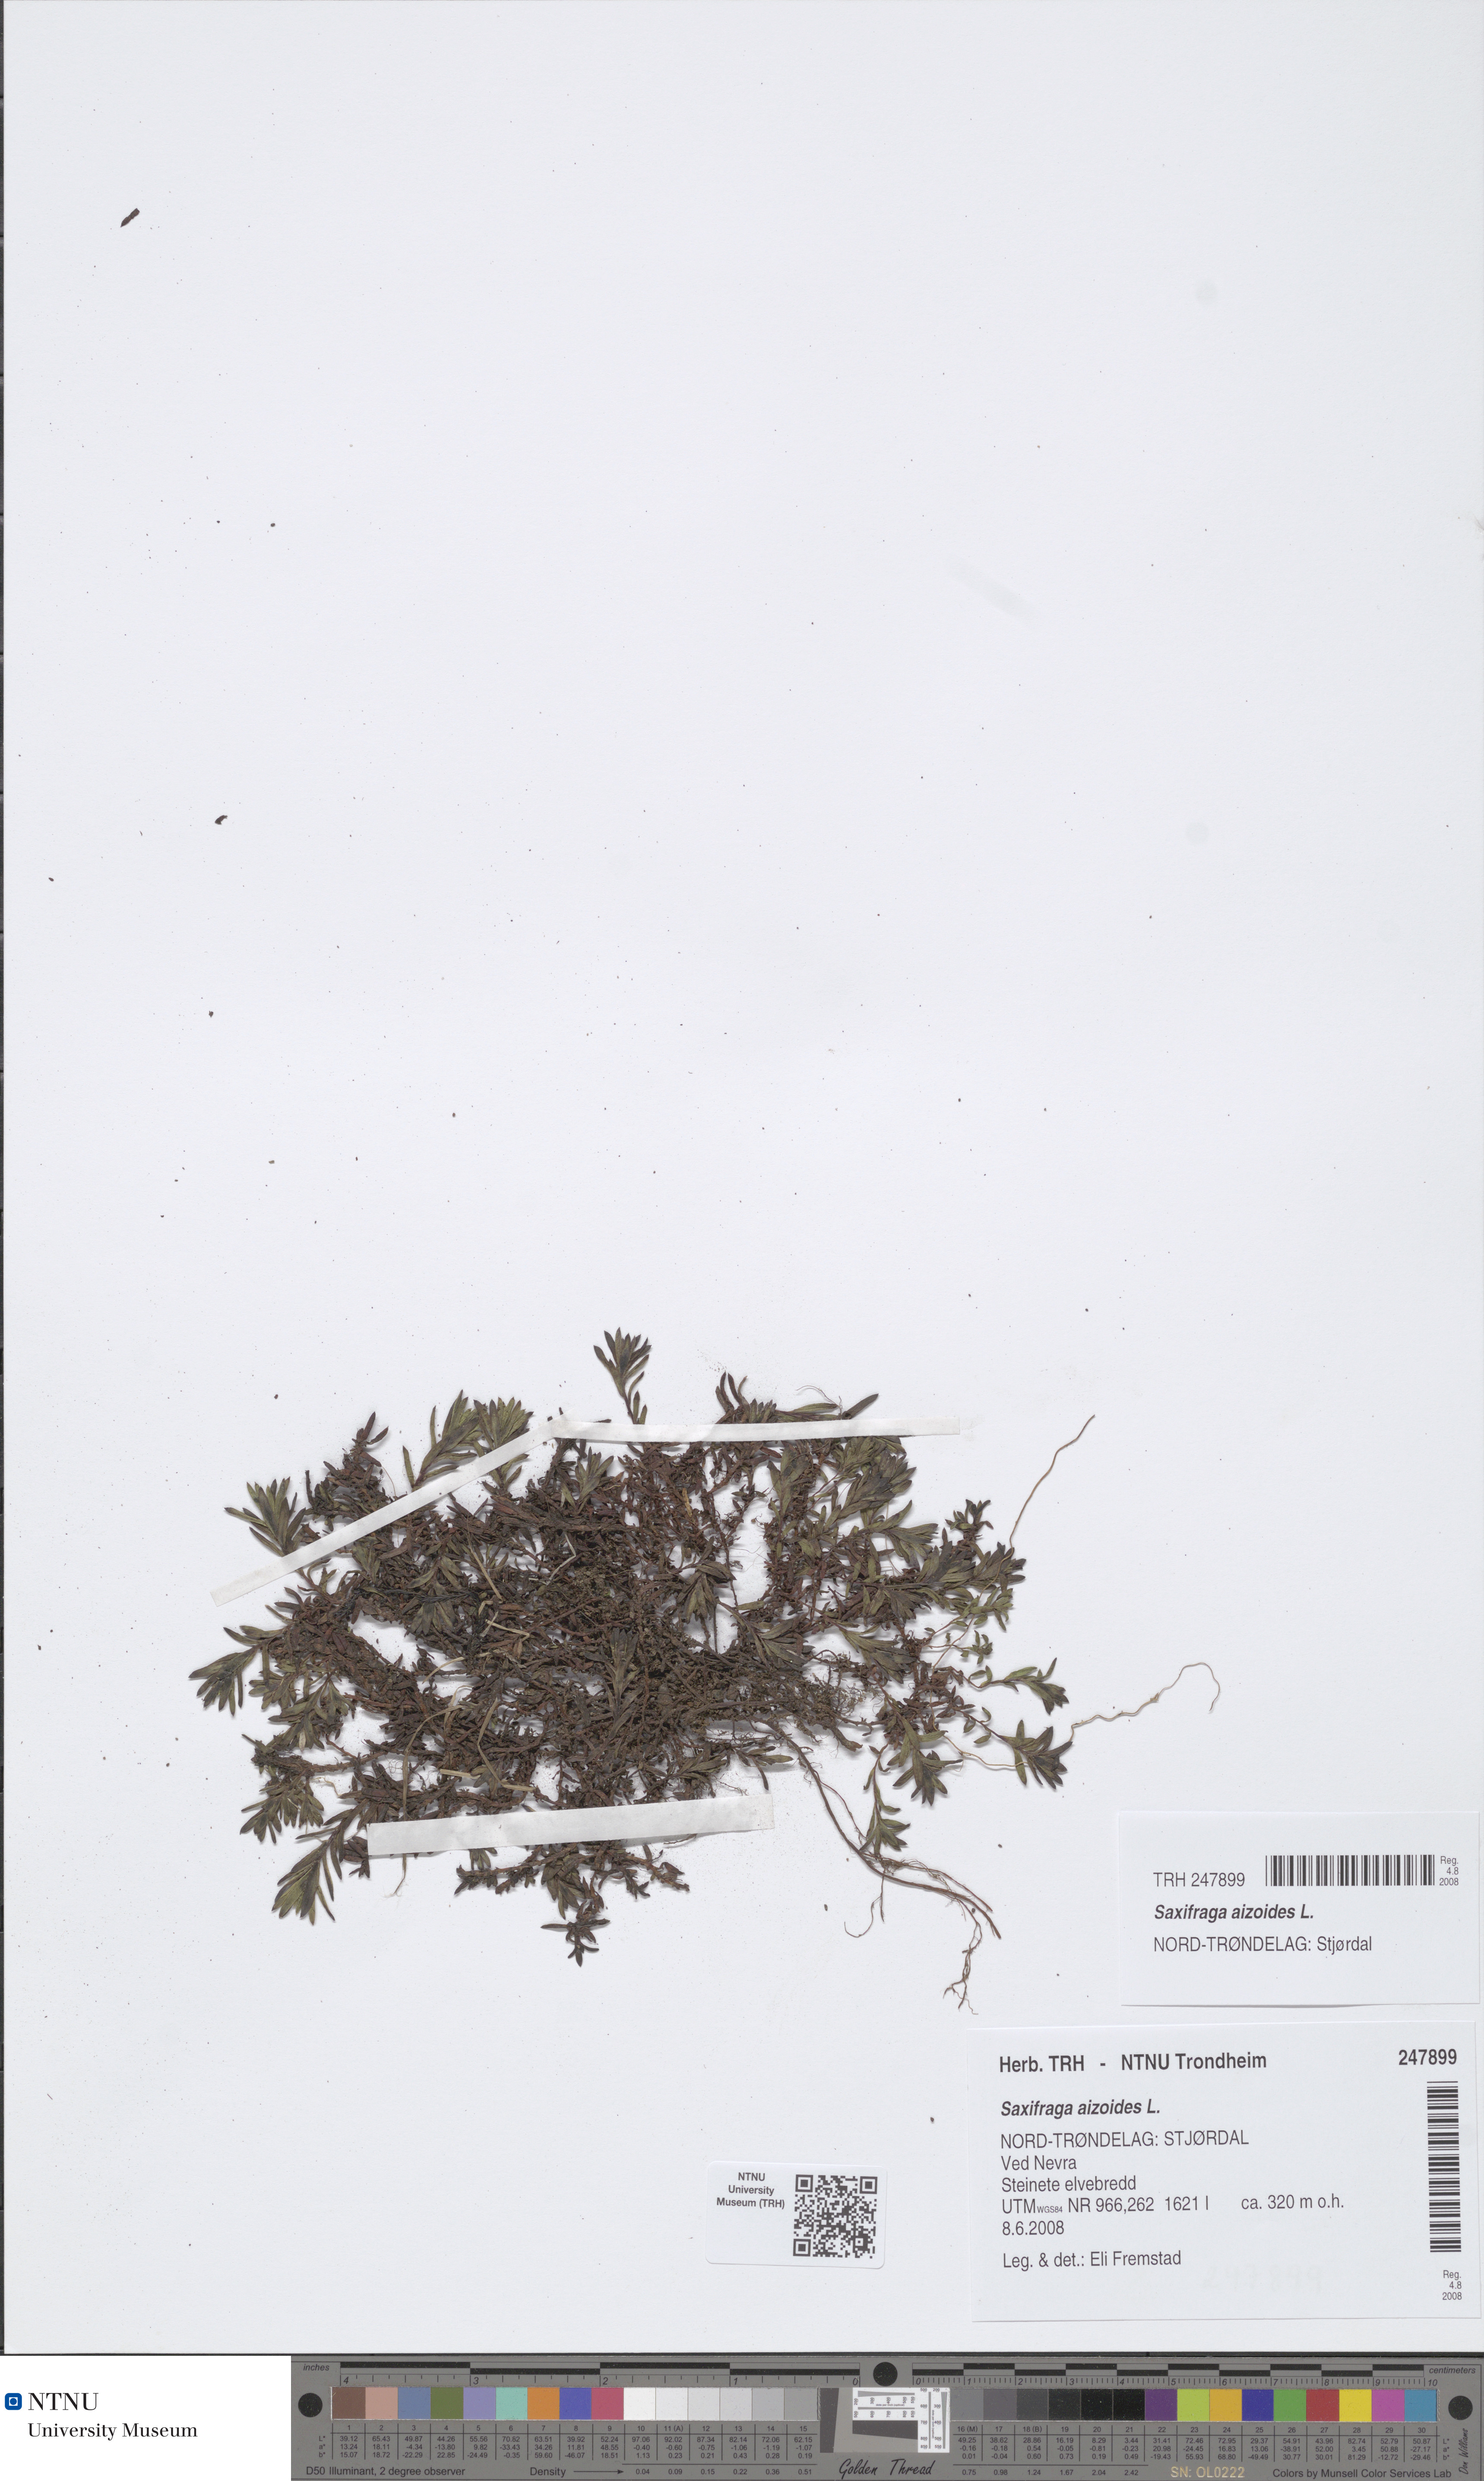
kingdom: Plantae
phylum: Tracheophyta
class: Magnoliopsida
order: Saxifragales
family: Saxifragaceae
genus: Saxifraga
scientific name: Saxifraga aizoides
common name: Yellow mountain saxifrage
